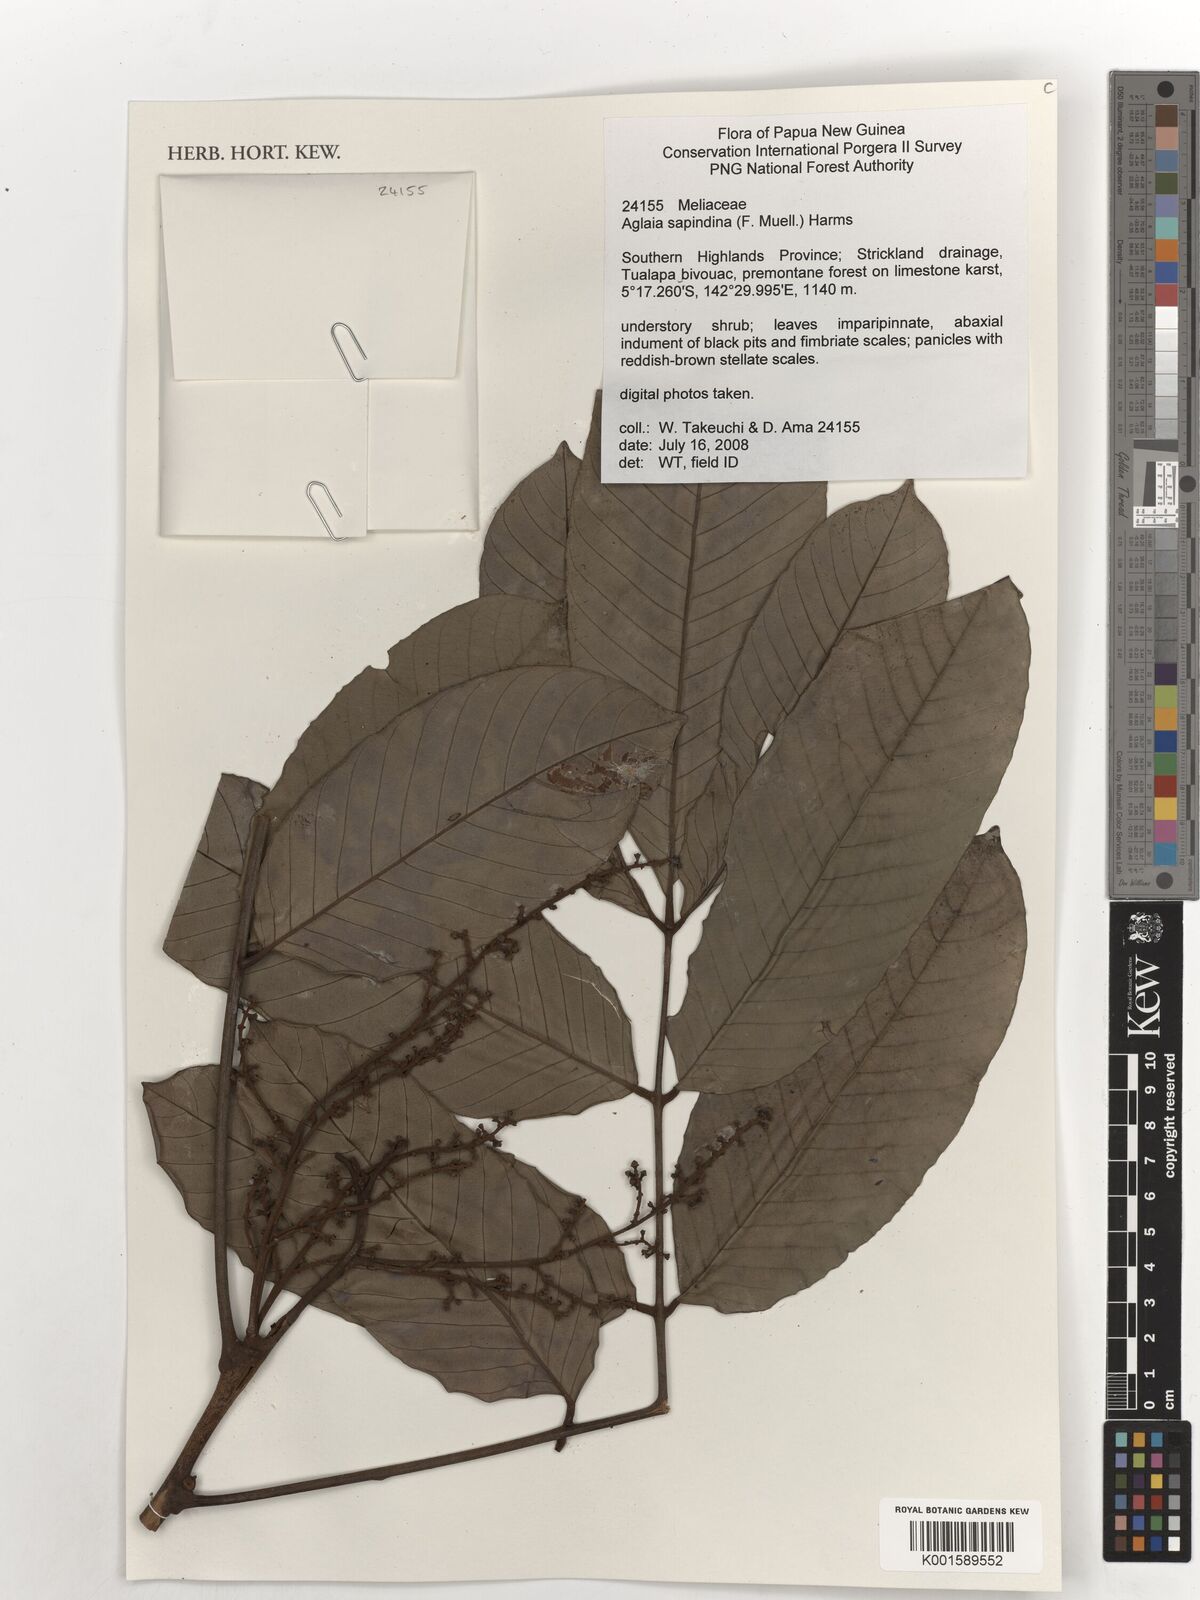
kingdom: Plantae
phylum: Tracheophyta
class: Magnoliopsida
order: Sapindales
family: Meliaceae
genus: Aglaia
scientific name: Aglaia sapindina
